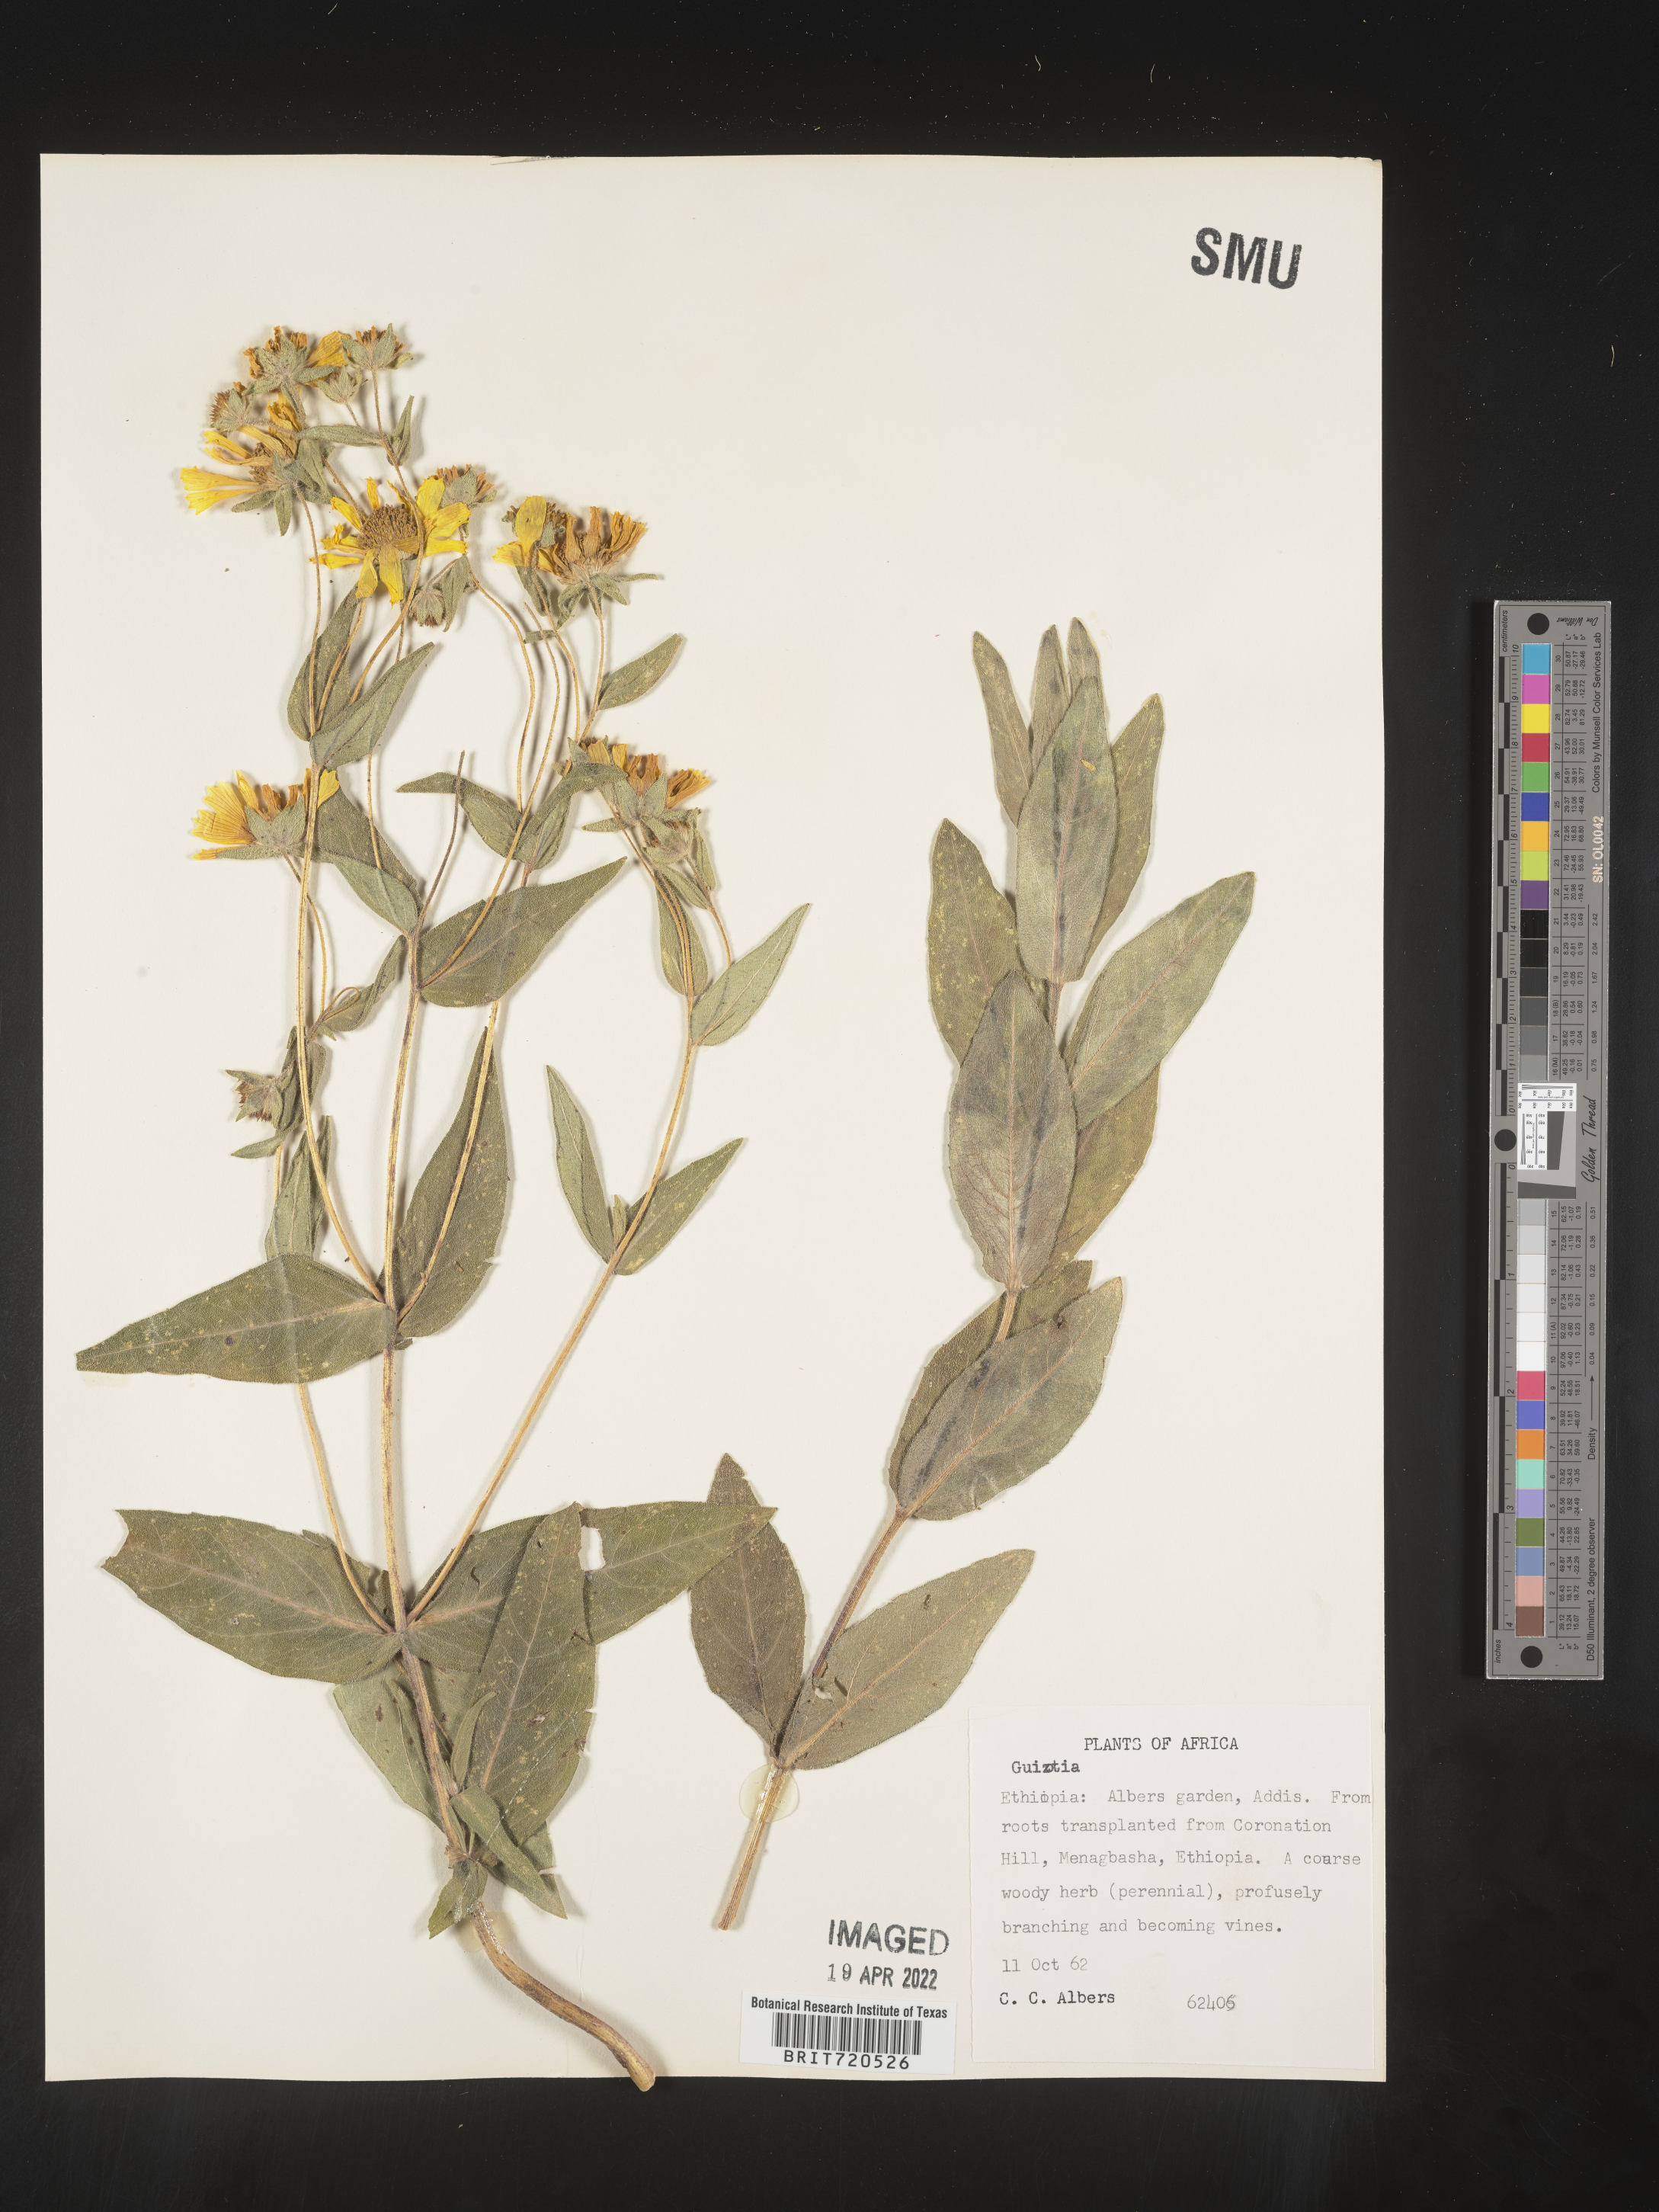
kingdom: Plantae
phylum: Tracheophyta
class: Magnoliopsida
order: Asterales
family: Asteraceae
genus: Guizotia
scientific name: Guizotia
